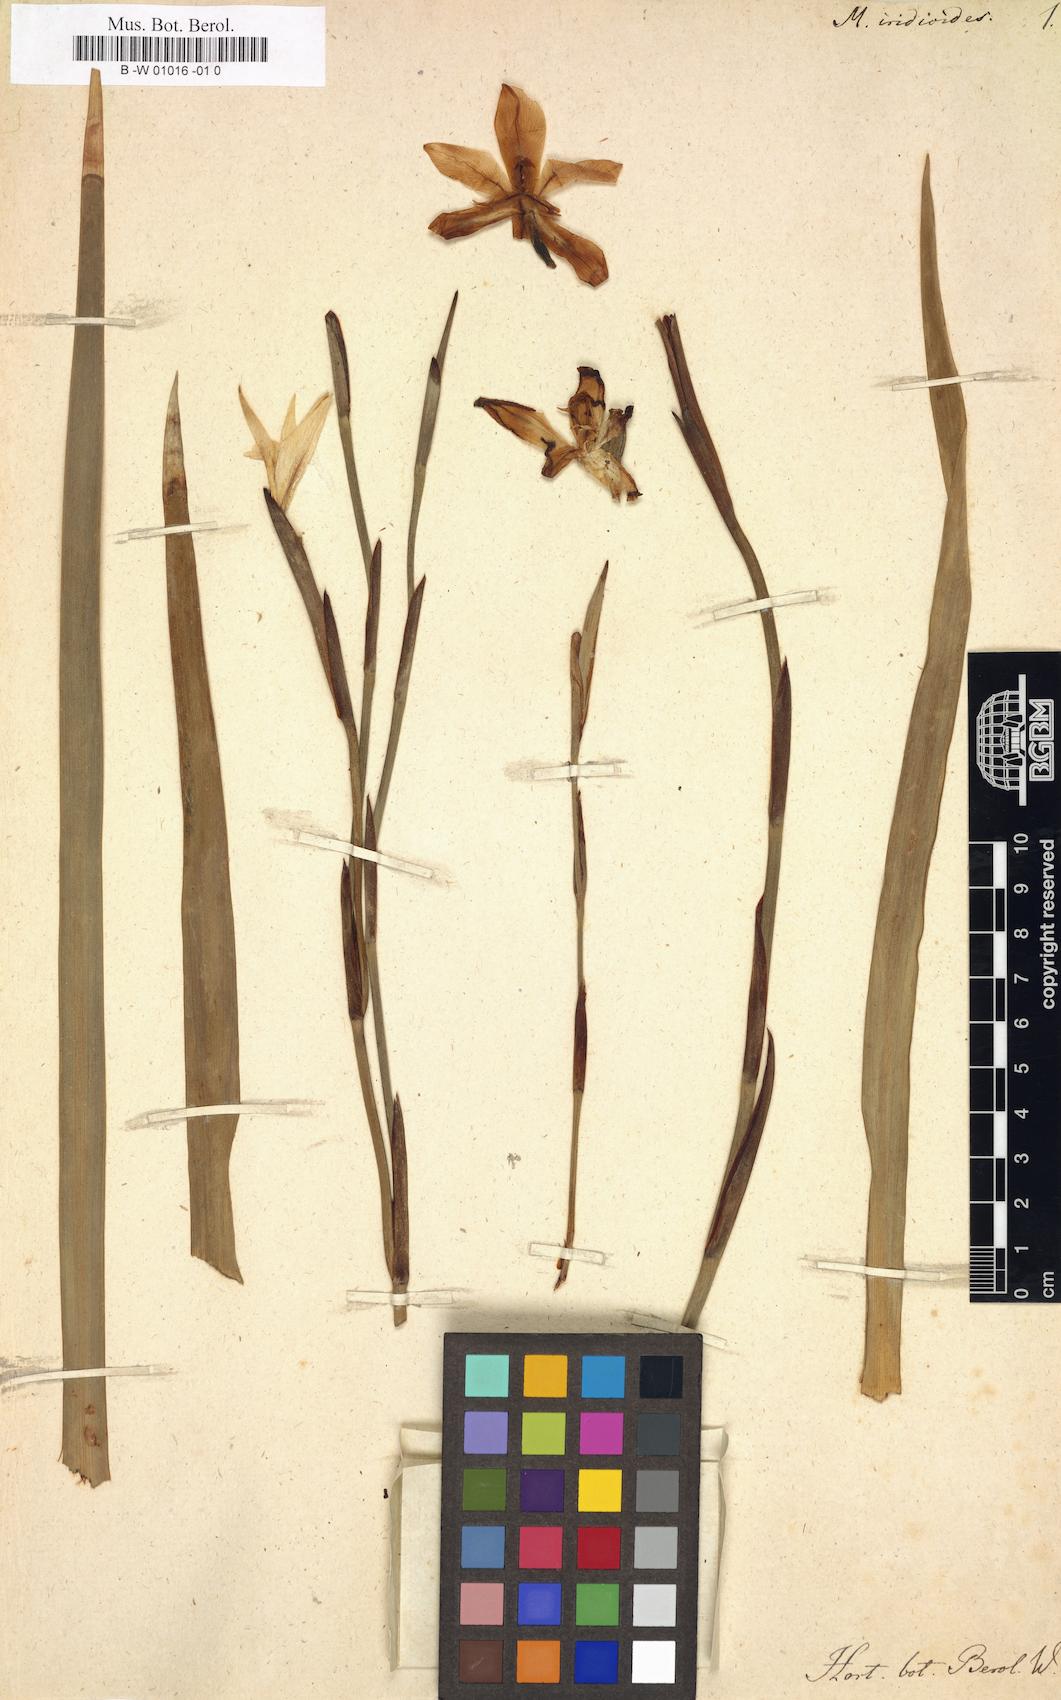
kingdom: Plantae
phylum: Tracheophyta
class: Liliopsida
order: Asparagales
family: Iridaceae
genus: Dietes
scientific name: Dietes iridioides
